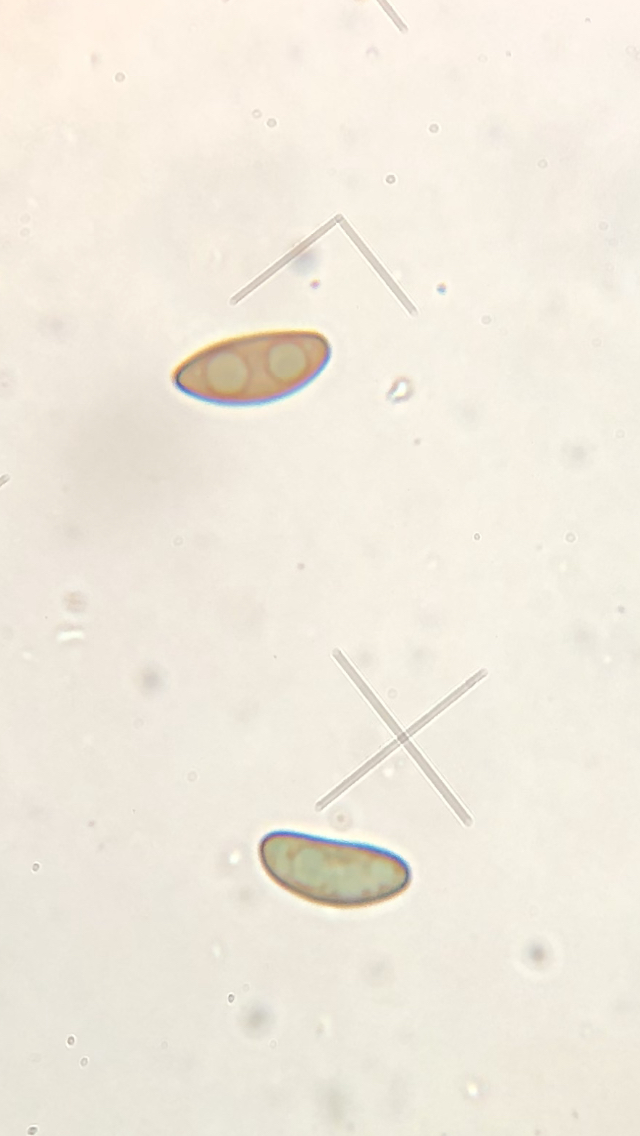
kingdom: Fungi
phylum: Ascomycota
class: Sordariomycetes
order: Xylariales
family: Xylariaceae
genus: Nemania
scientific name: Nemania serpens
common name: almindelig kuldyne
